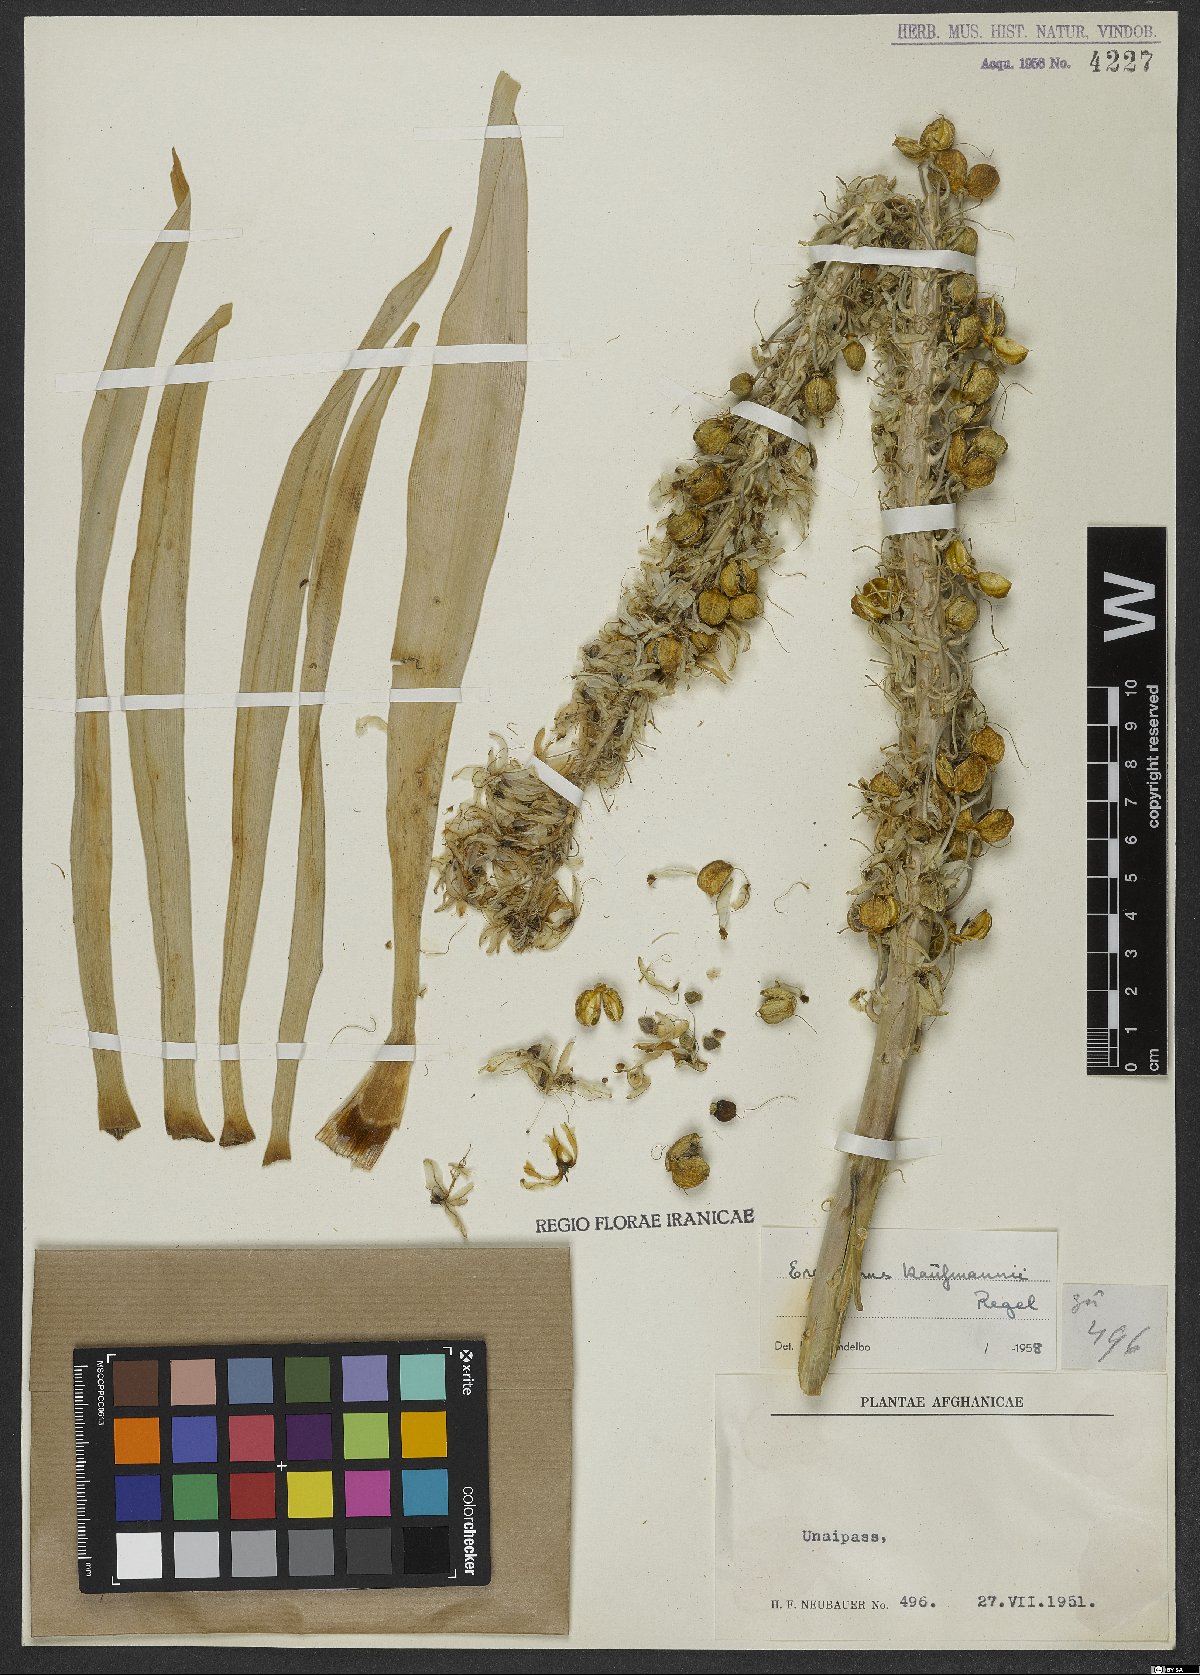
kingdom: Plantae
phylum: Tracheophyta
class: Liliopsida
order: Asparagales
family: Asphodelaceae
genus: Eremurus
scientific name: Eremurus kaufmannii
